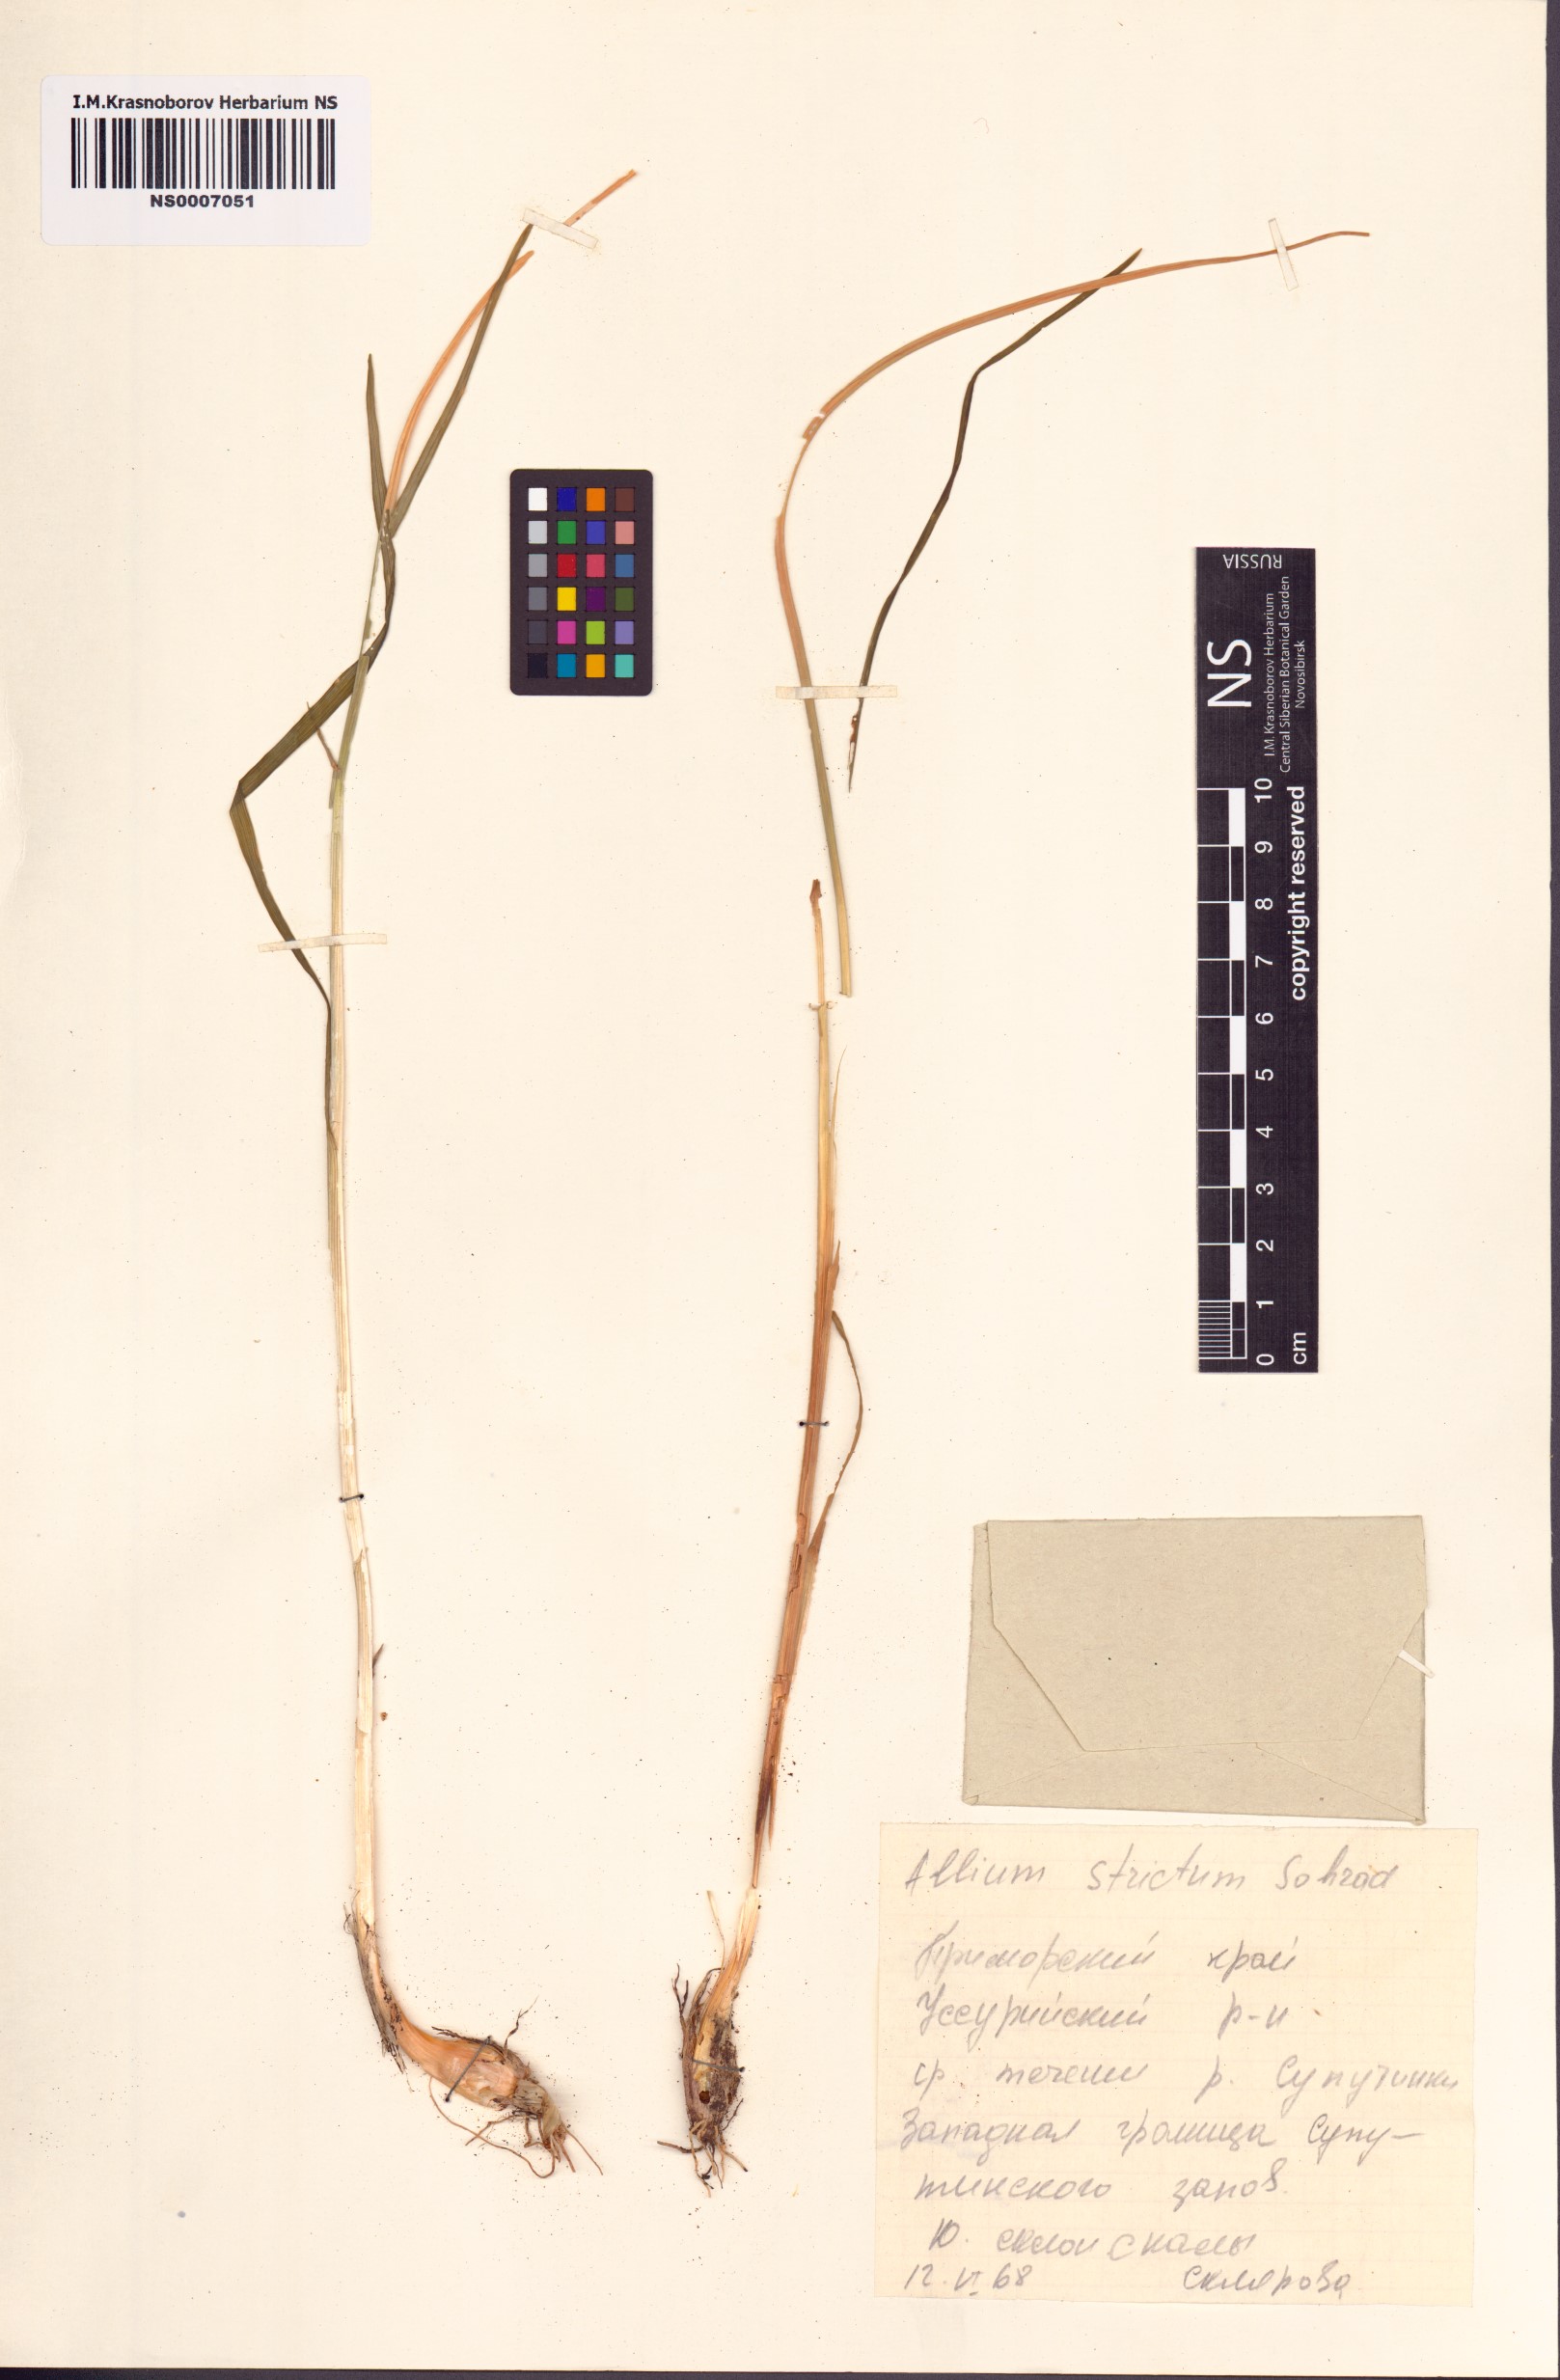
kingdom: Plantae
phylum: Tracheophyta
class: Liliopsida
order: Asparagales
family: Amaryllidaceae
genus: Allium
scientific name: Allium strictum
